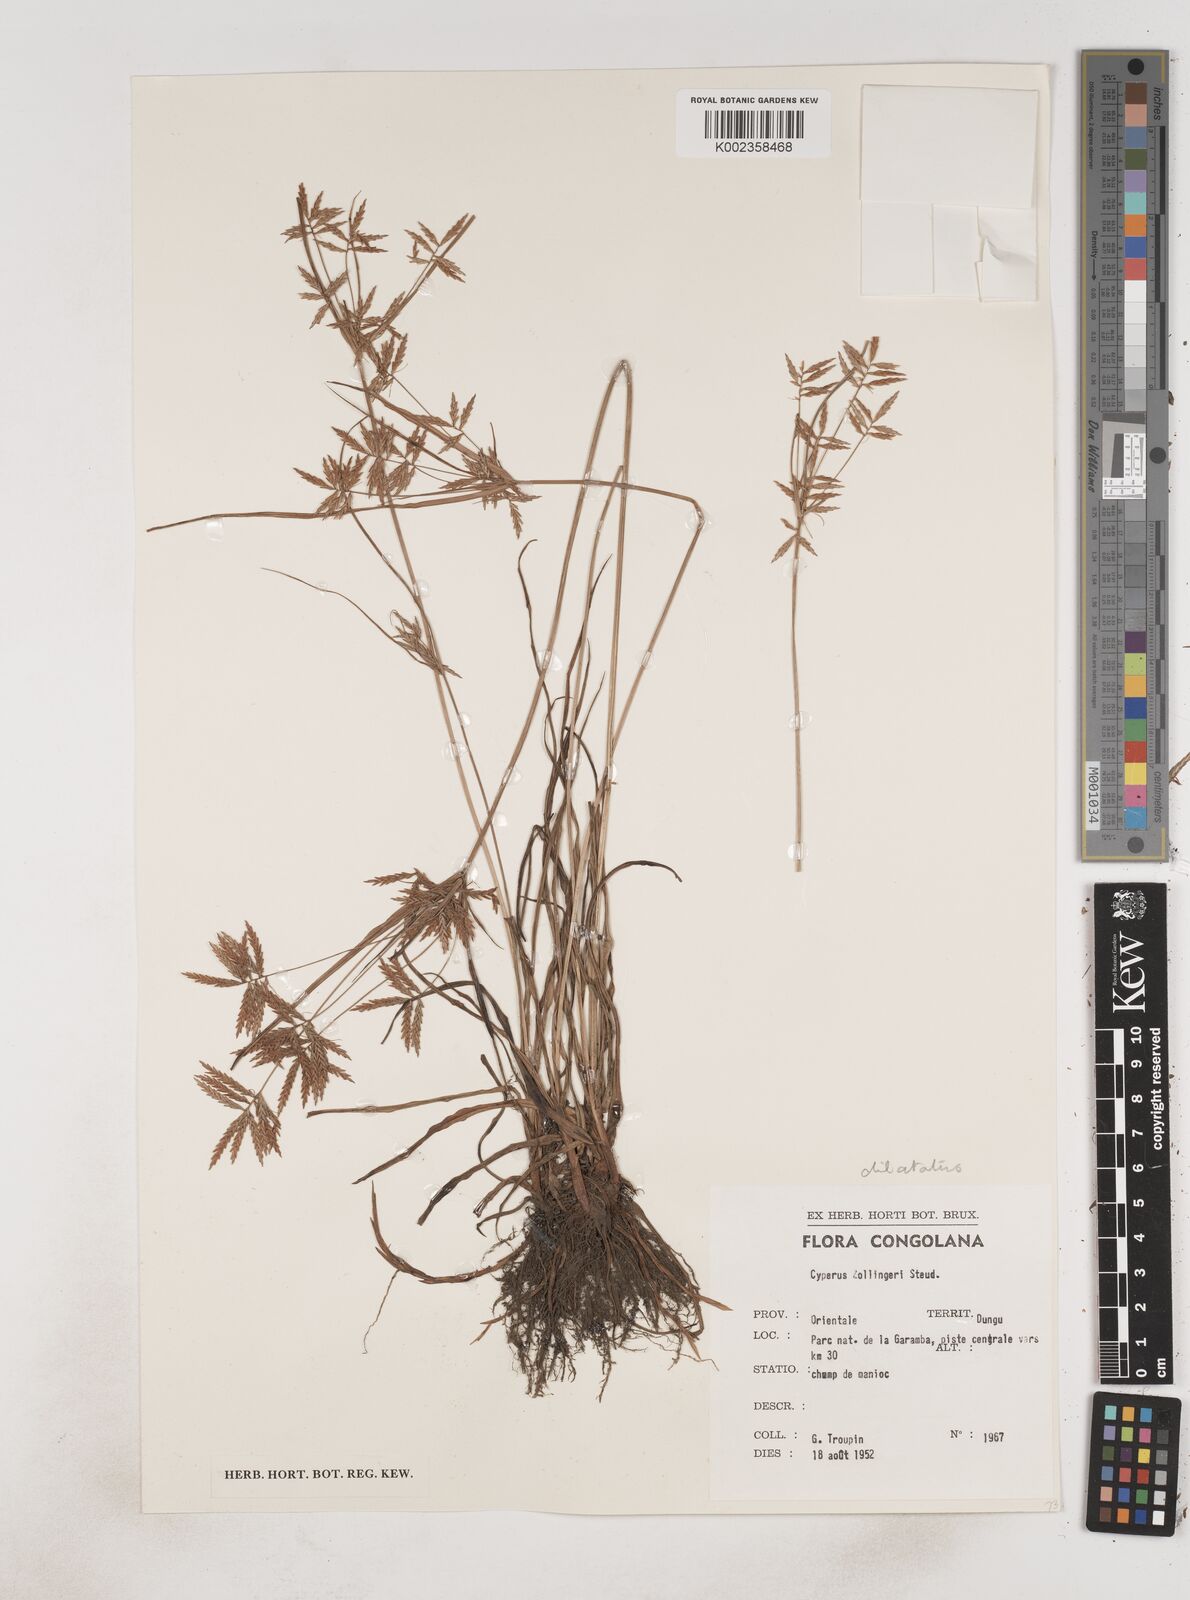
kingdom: Plantae
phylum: Tracheophyta
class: Liliopsida
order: Poales
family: Cyperaceae
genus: Cyperus
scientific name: Cyperus dilatatus
